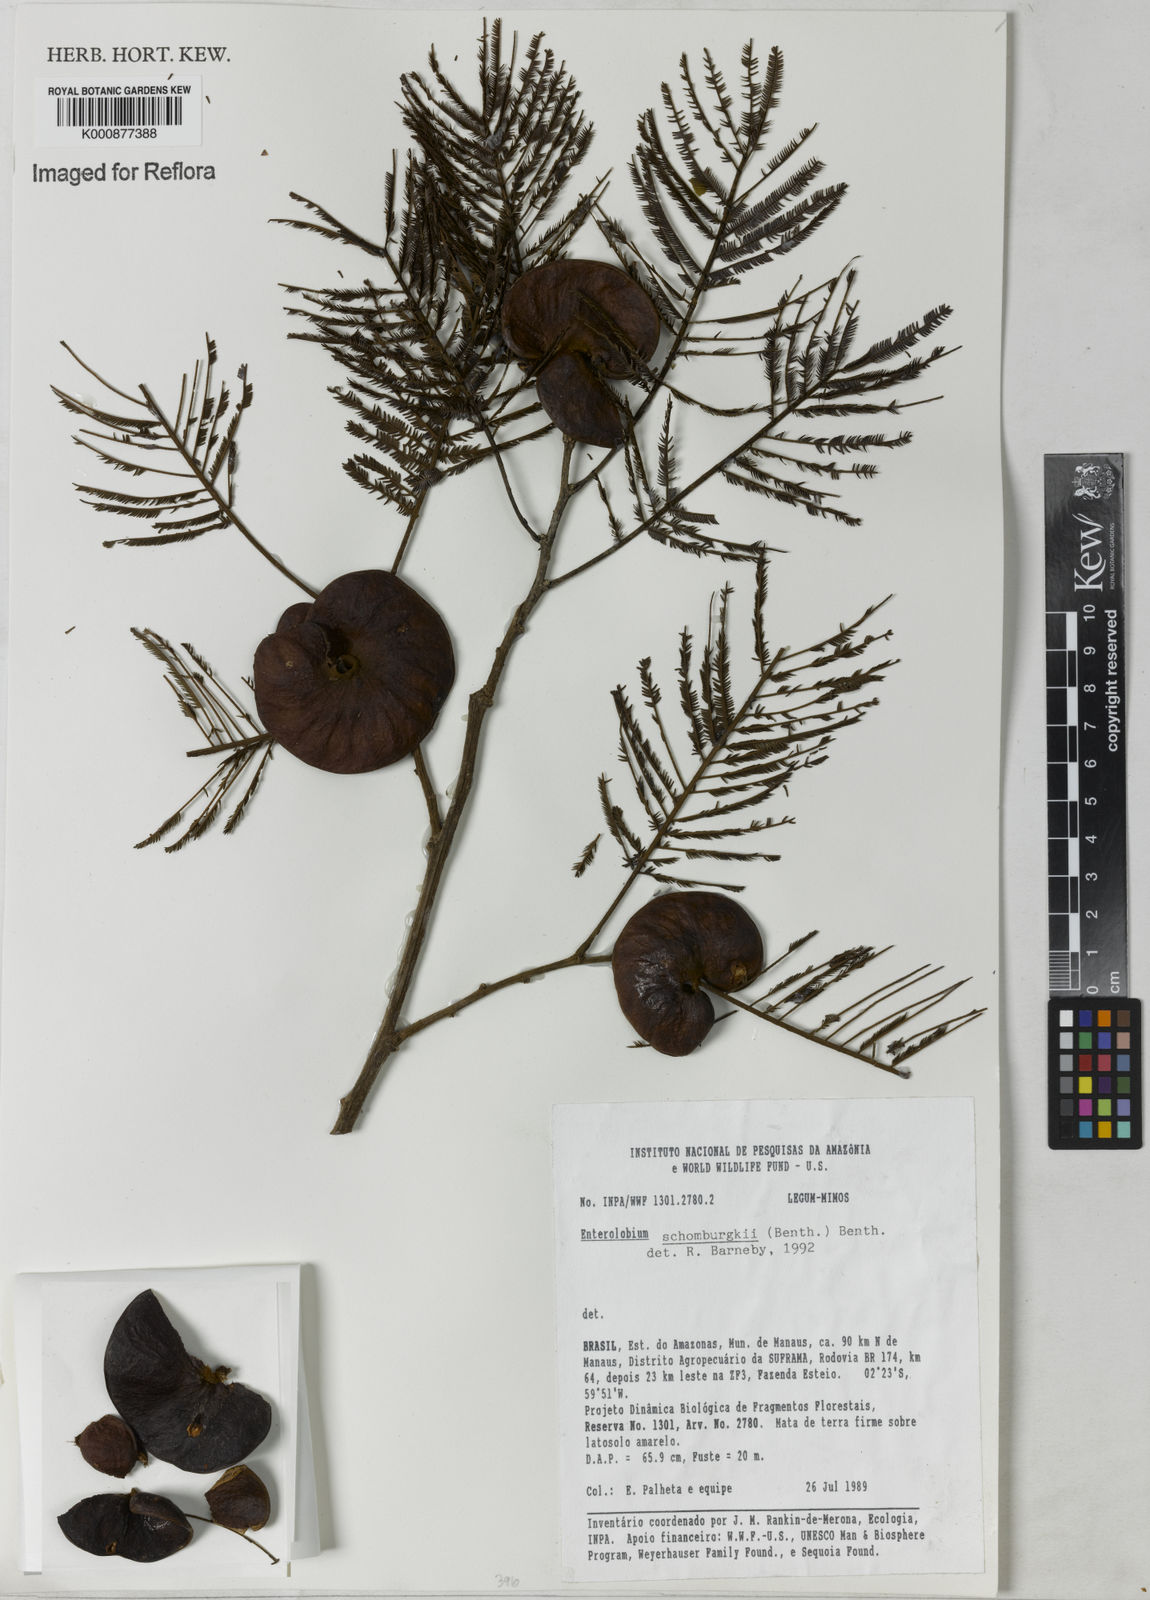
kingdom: Plantae
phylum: Tracheophyta
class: Magnoliopsida
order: Fabales
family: Fabaceae
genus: Enterolobium
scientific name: Enterolobium schomburgkii
